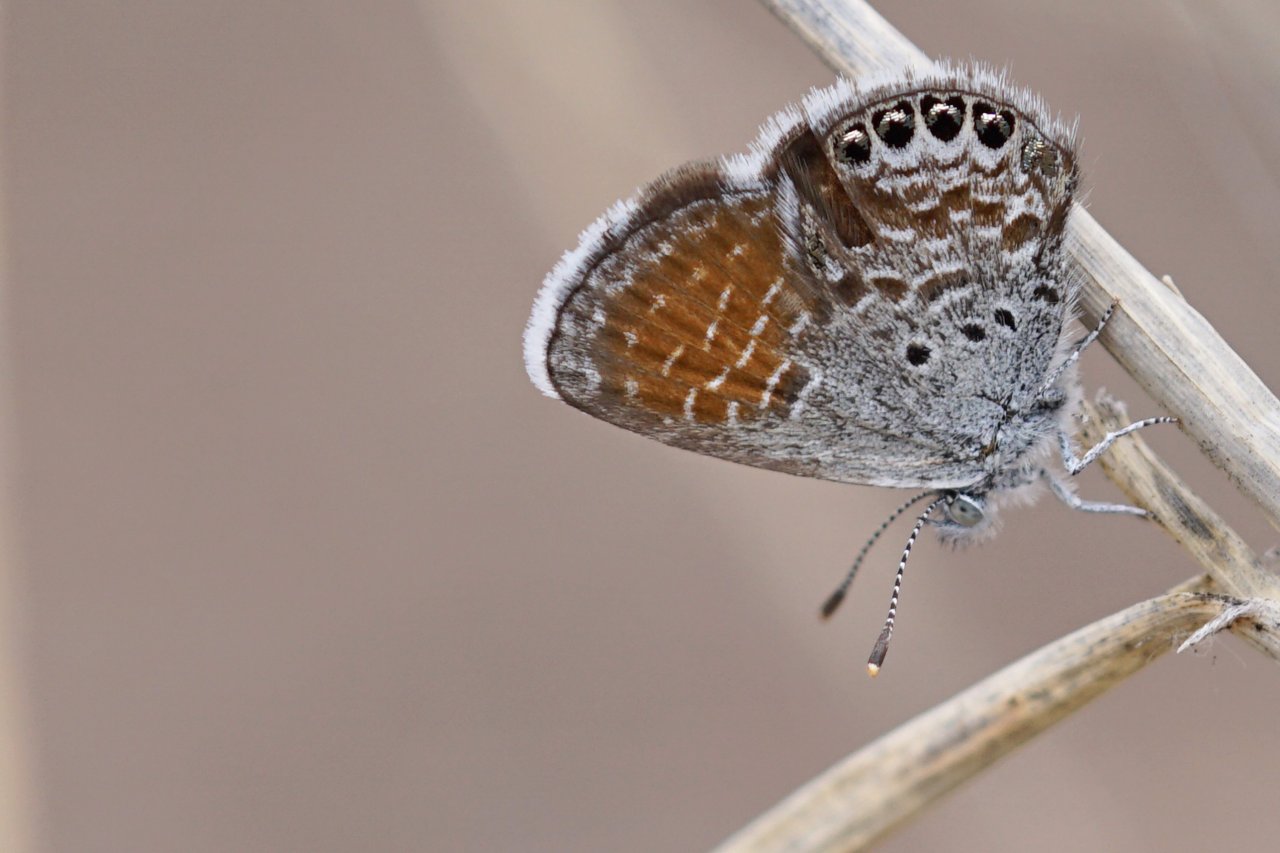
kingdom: Animalia
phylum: Arthropoda
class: Insecta
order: Lepidoptera
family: Lycaenidae
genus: Brephidium
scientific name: Brephidium exilis
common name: Western Pygmy-Blue
